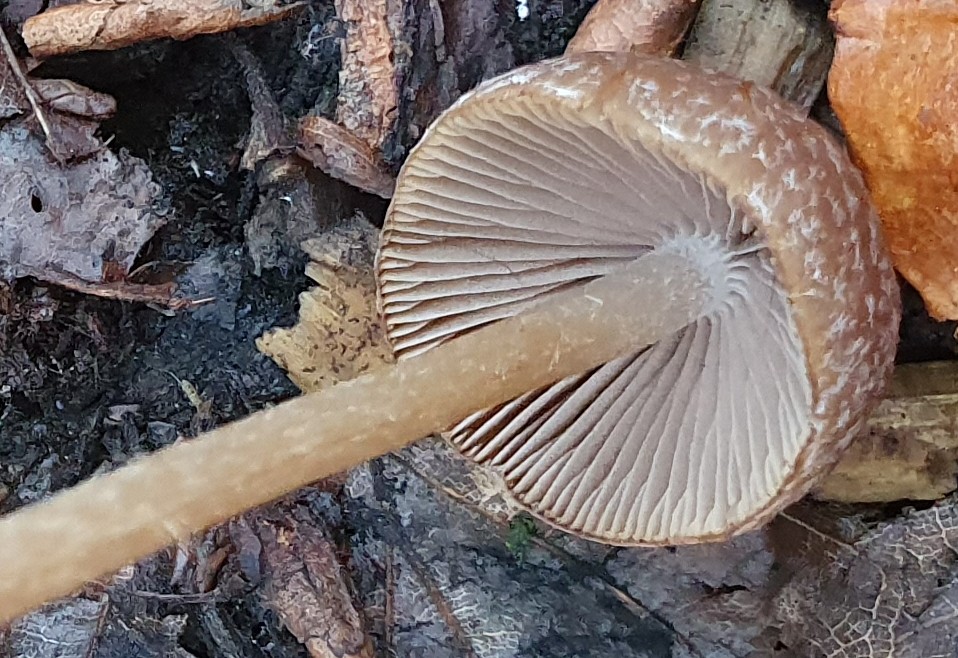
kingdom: Fungi
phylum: Basidiomycota
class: Agaricomycetes
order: Agaricales
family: Psathyrellaceae
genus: Psathyrella
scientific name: Psathyrella
